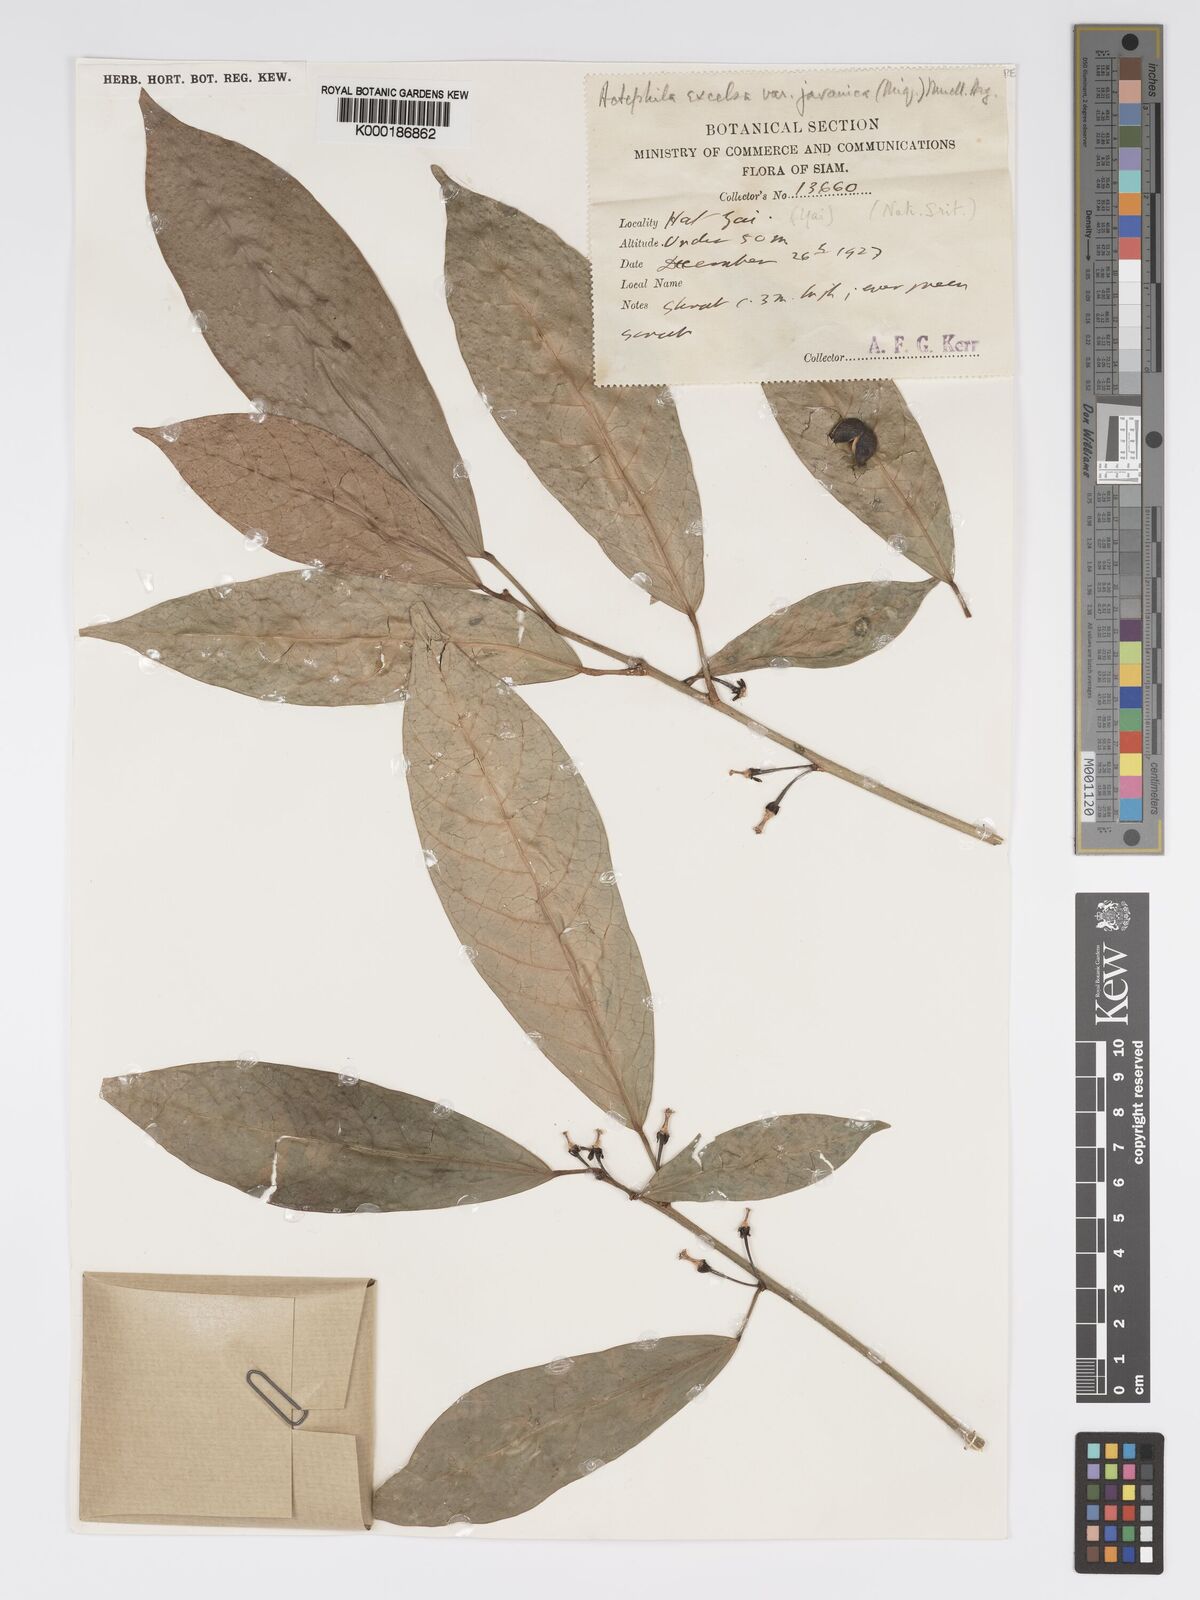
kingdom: Plantae
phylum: Tracheophyta
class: Magnoliopsida
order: Malpighiales
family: Phyllanthaceae
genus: Actephila
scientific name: Actephila
